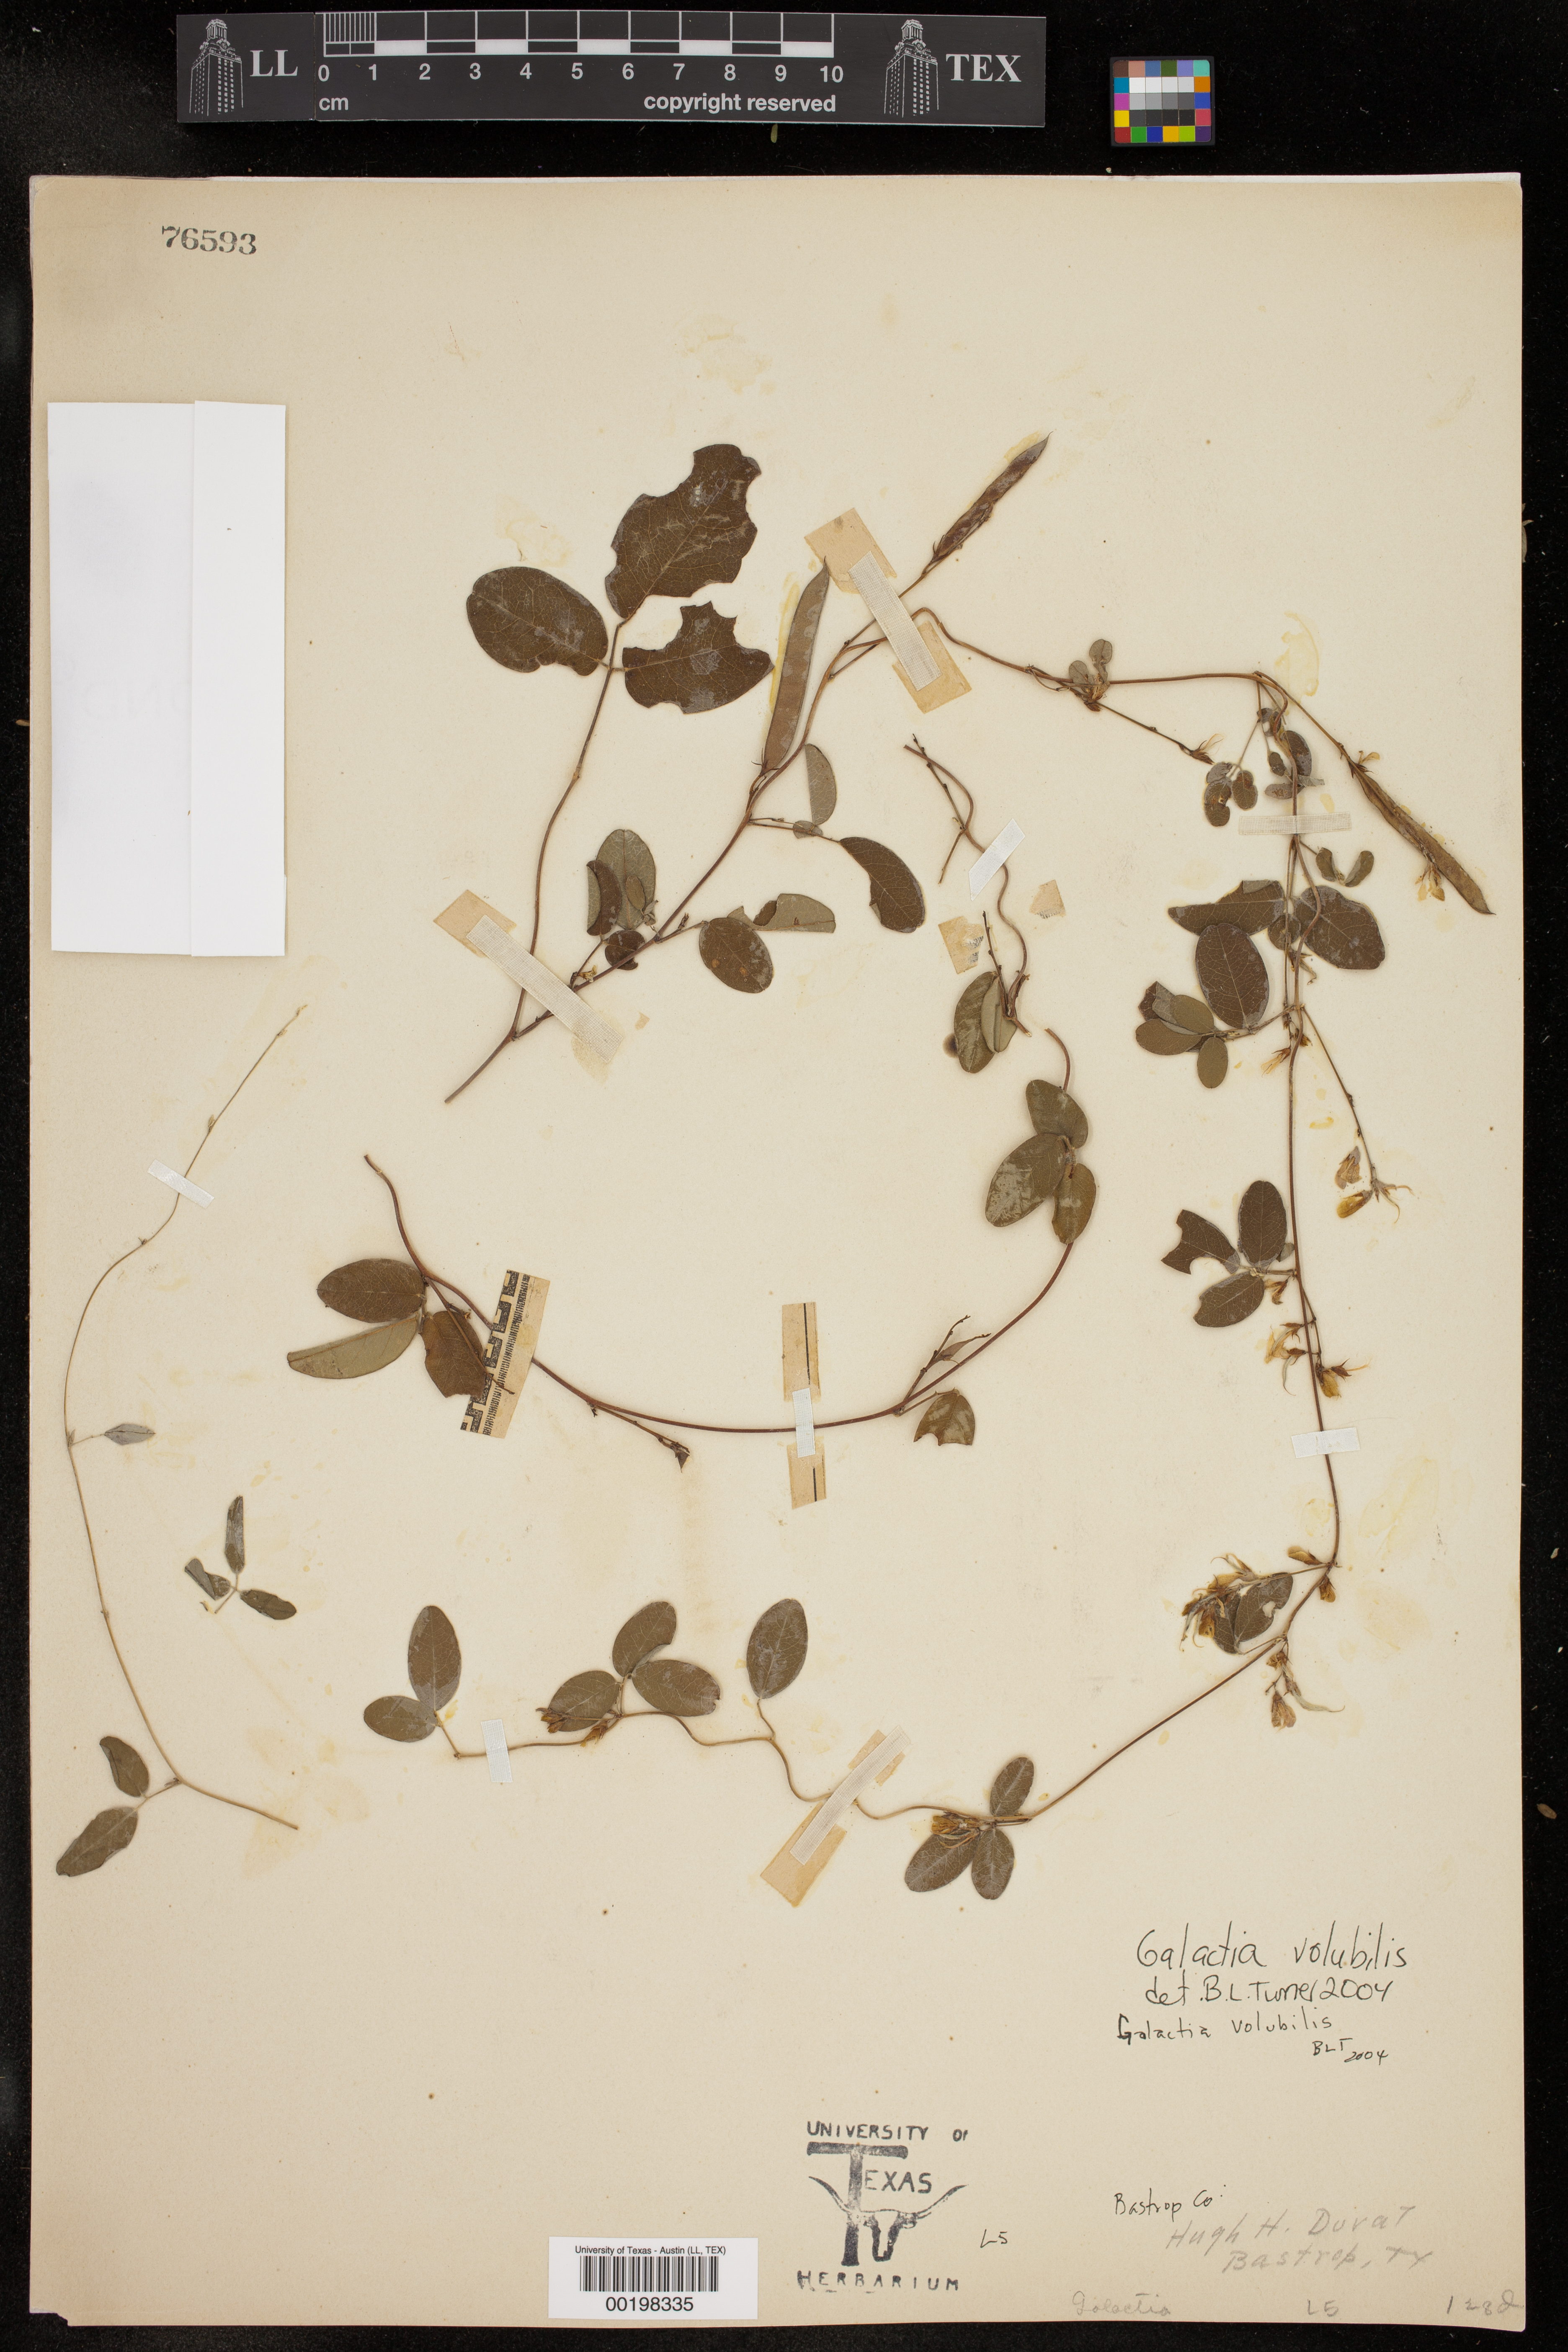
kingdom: Plantae
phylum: Tracheophyta
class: Magnoliopsida
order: Fabales
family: Fabaceae
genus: Galactia
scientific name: Galactia volubilis
